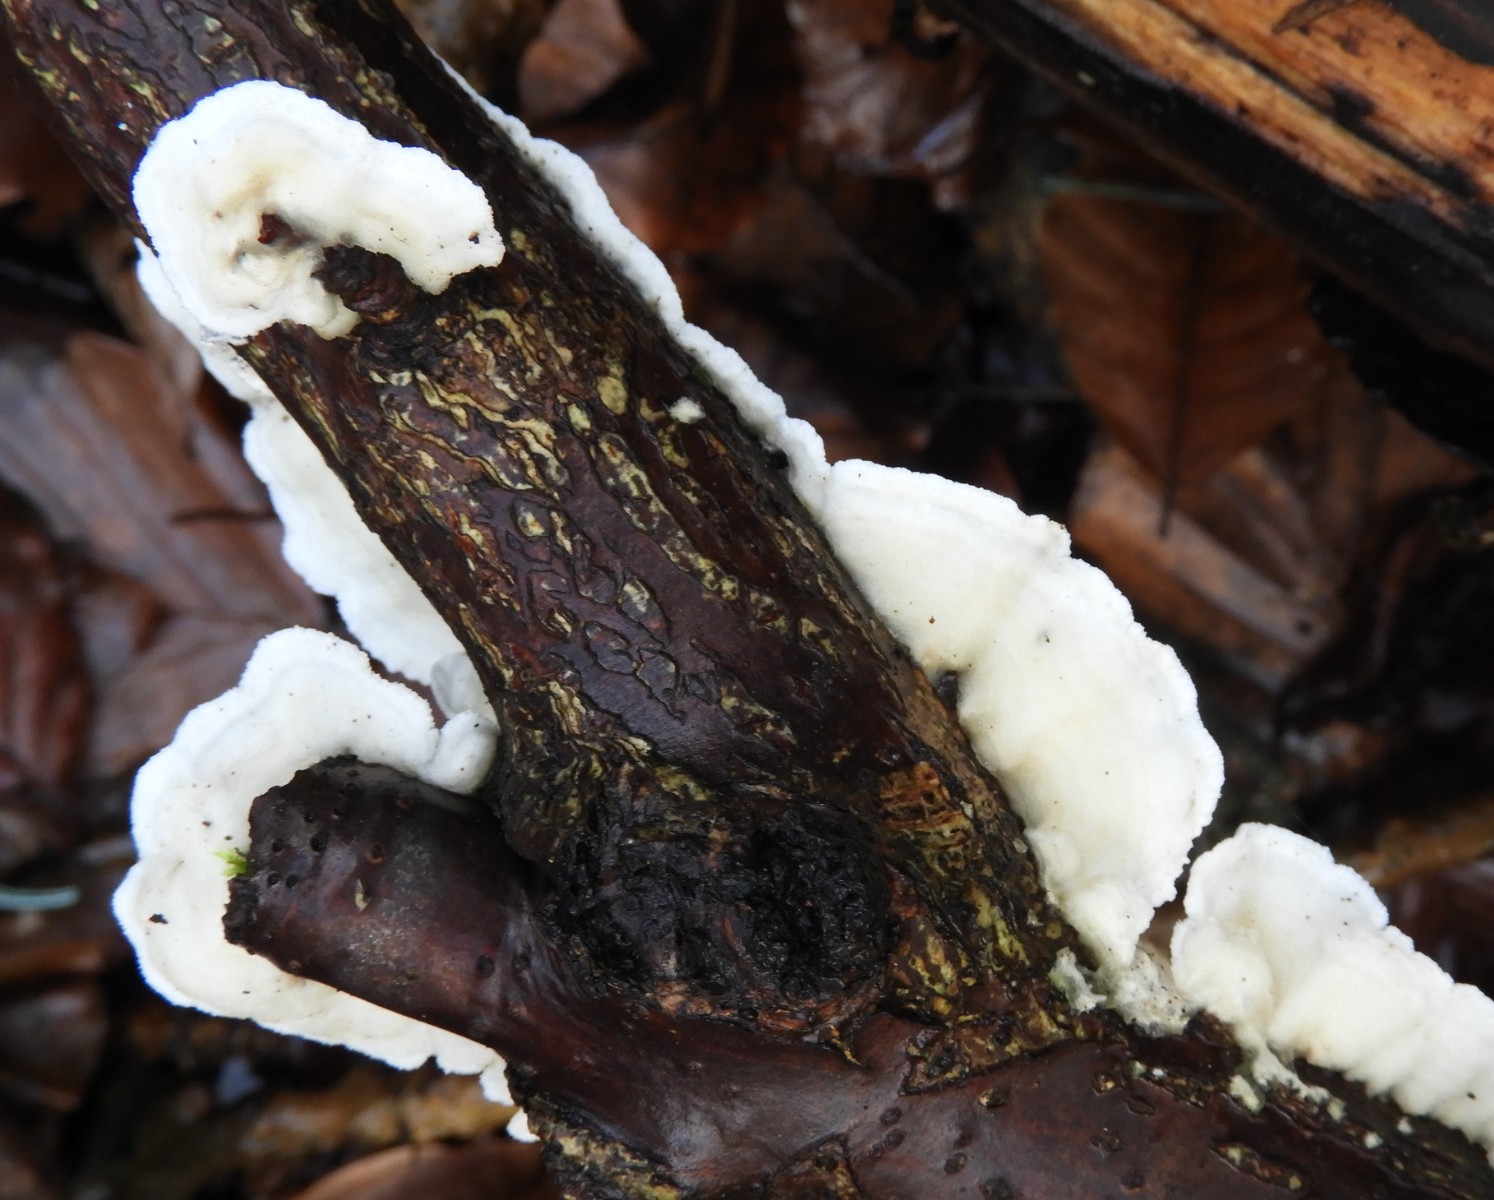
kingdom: Fungi
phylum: Basidiomycota
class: Agaricomycetes
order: Polyporales
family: Irpicaceae
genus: Byssomerulius
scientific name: Byssomerulius corium
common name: læder-åresvamp
